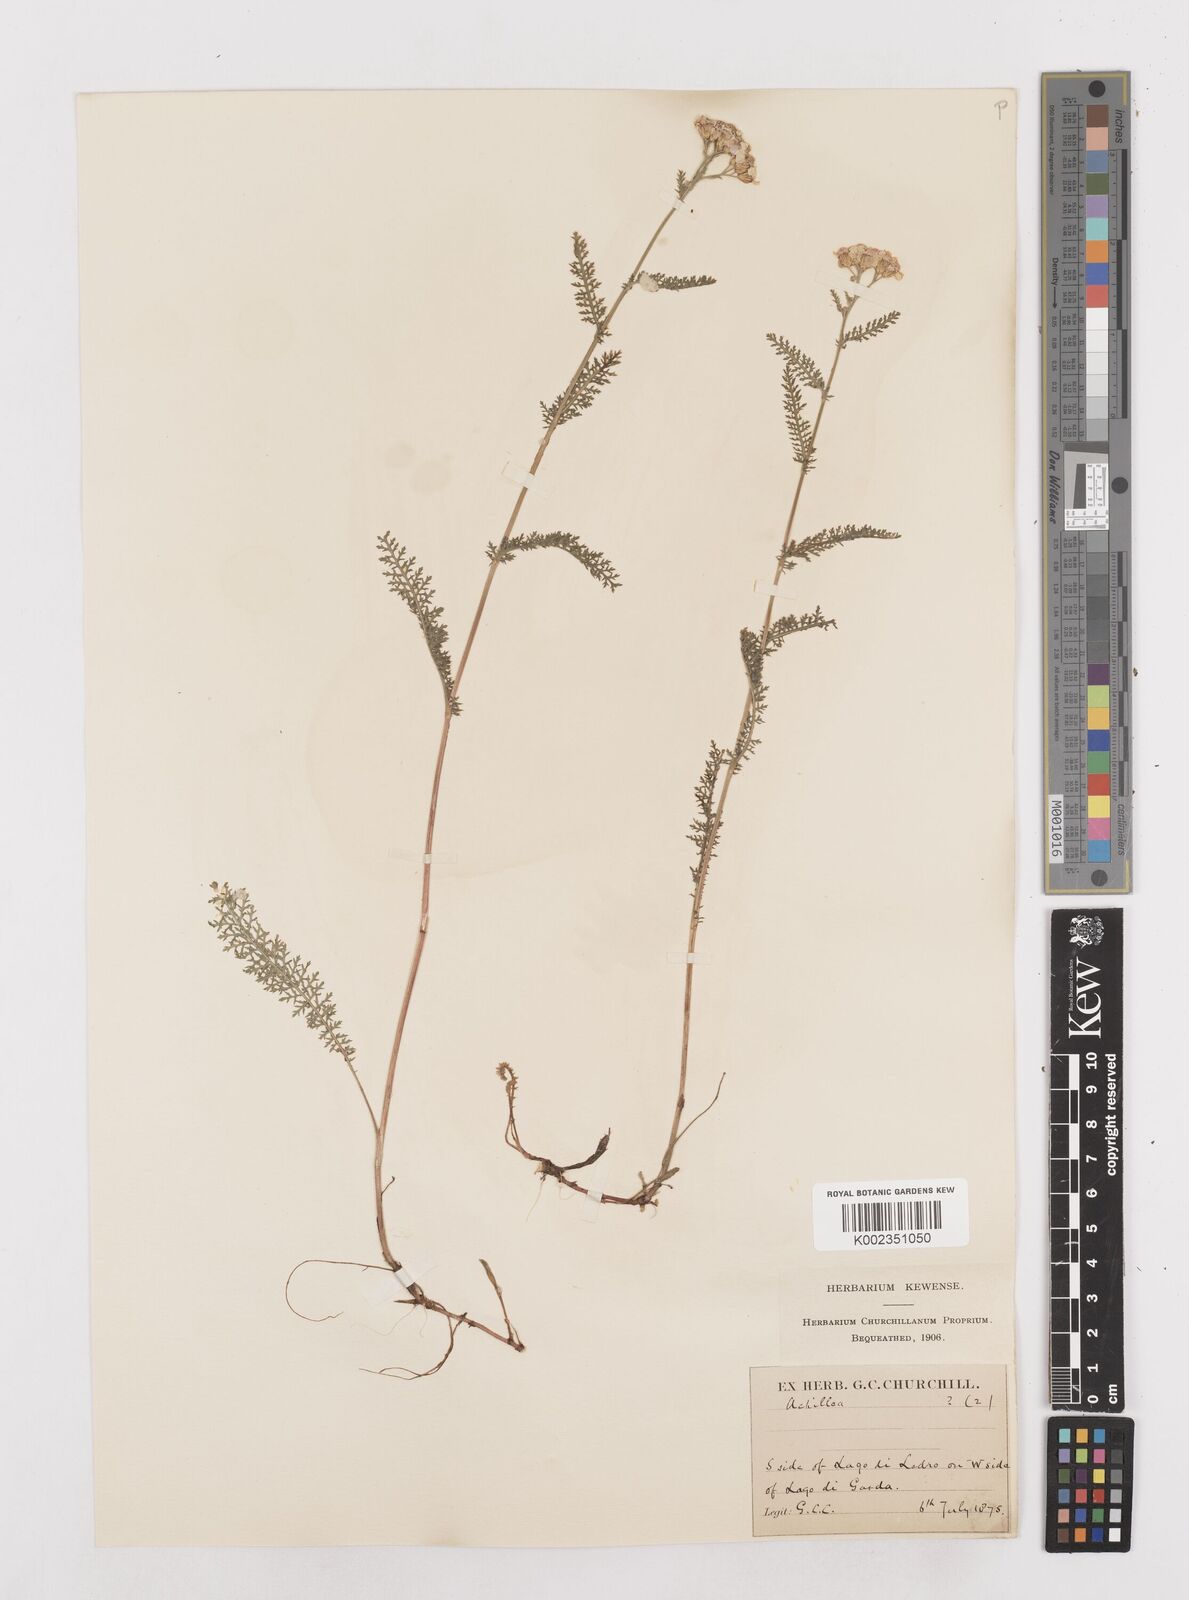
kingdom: Plantae
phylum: Tracheophyta
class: Magnoliopsida
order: Asterales
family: Asteraceae
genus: Achillea
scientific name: Achillea millefolium
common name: Yarrow
